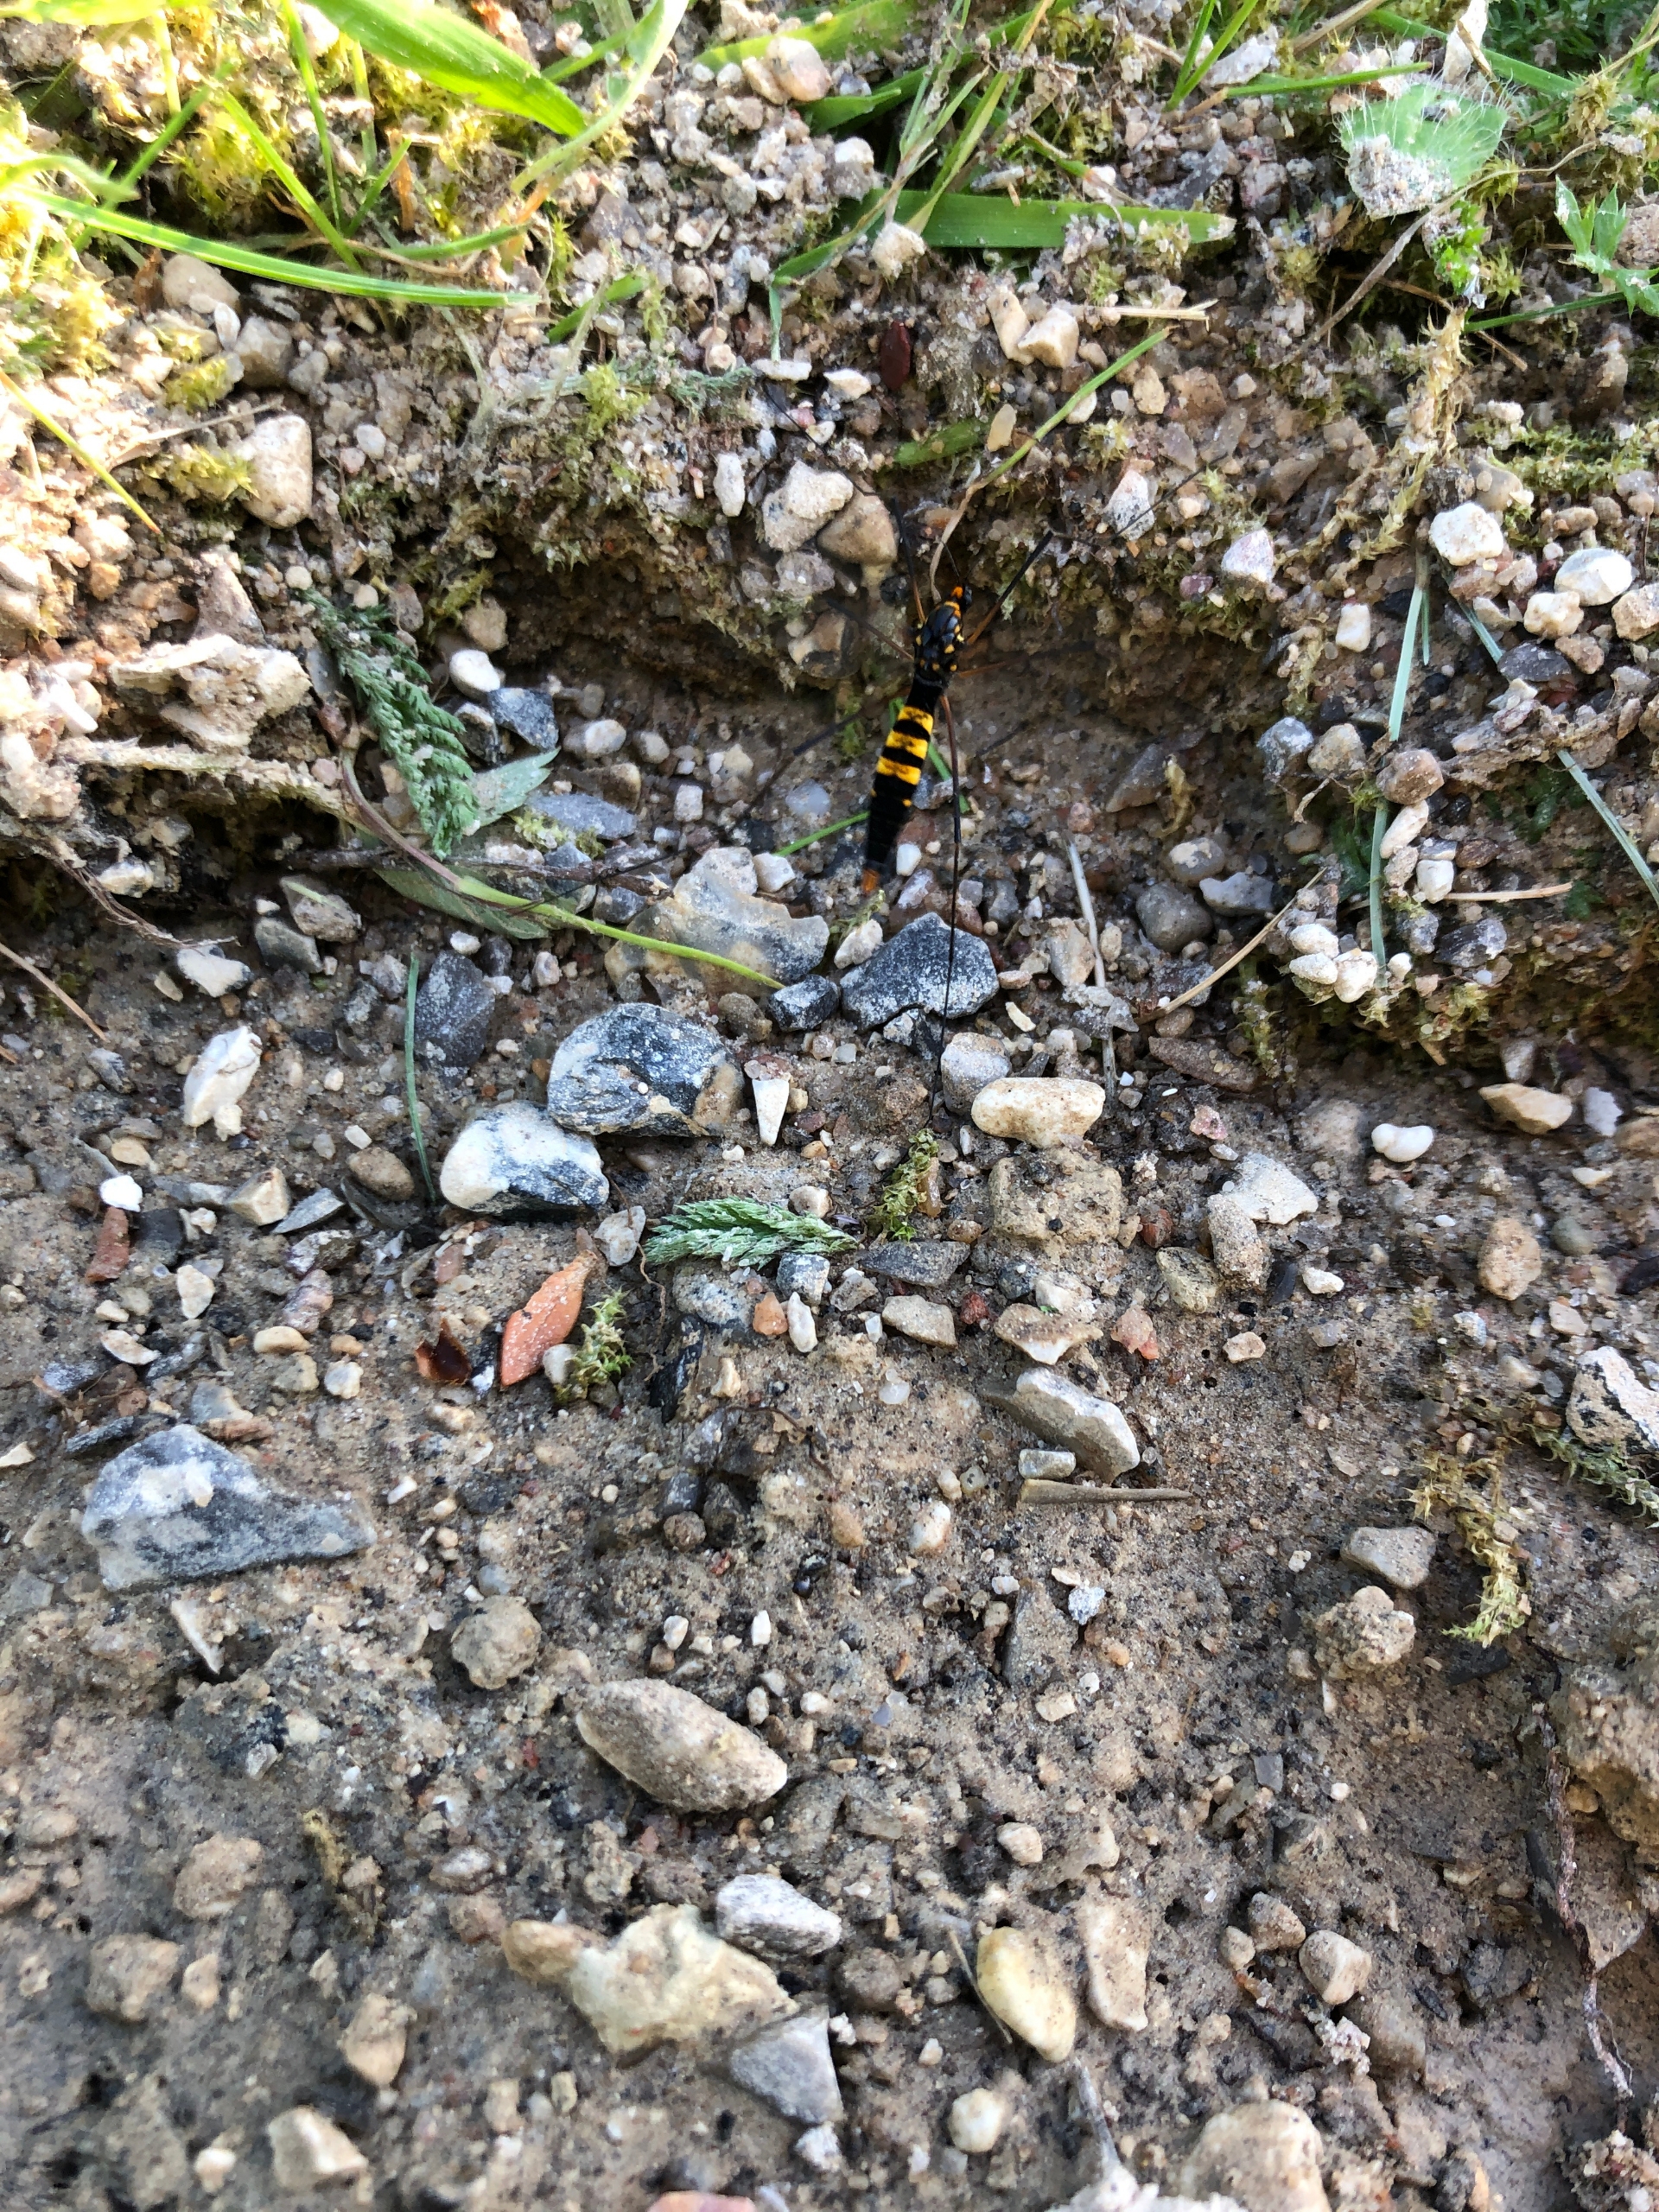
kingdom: Animalia
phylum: Arthropoda
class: Insecta
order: Diptera
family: Tipulidae
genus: Nephrotoma
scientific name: Nephrotoma crocata
